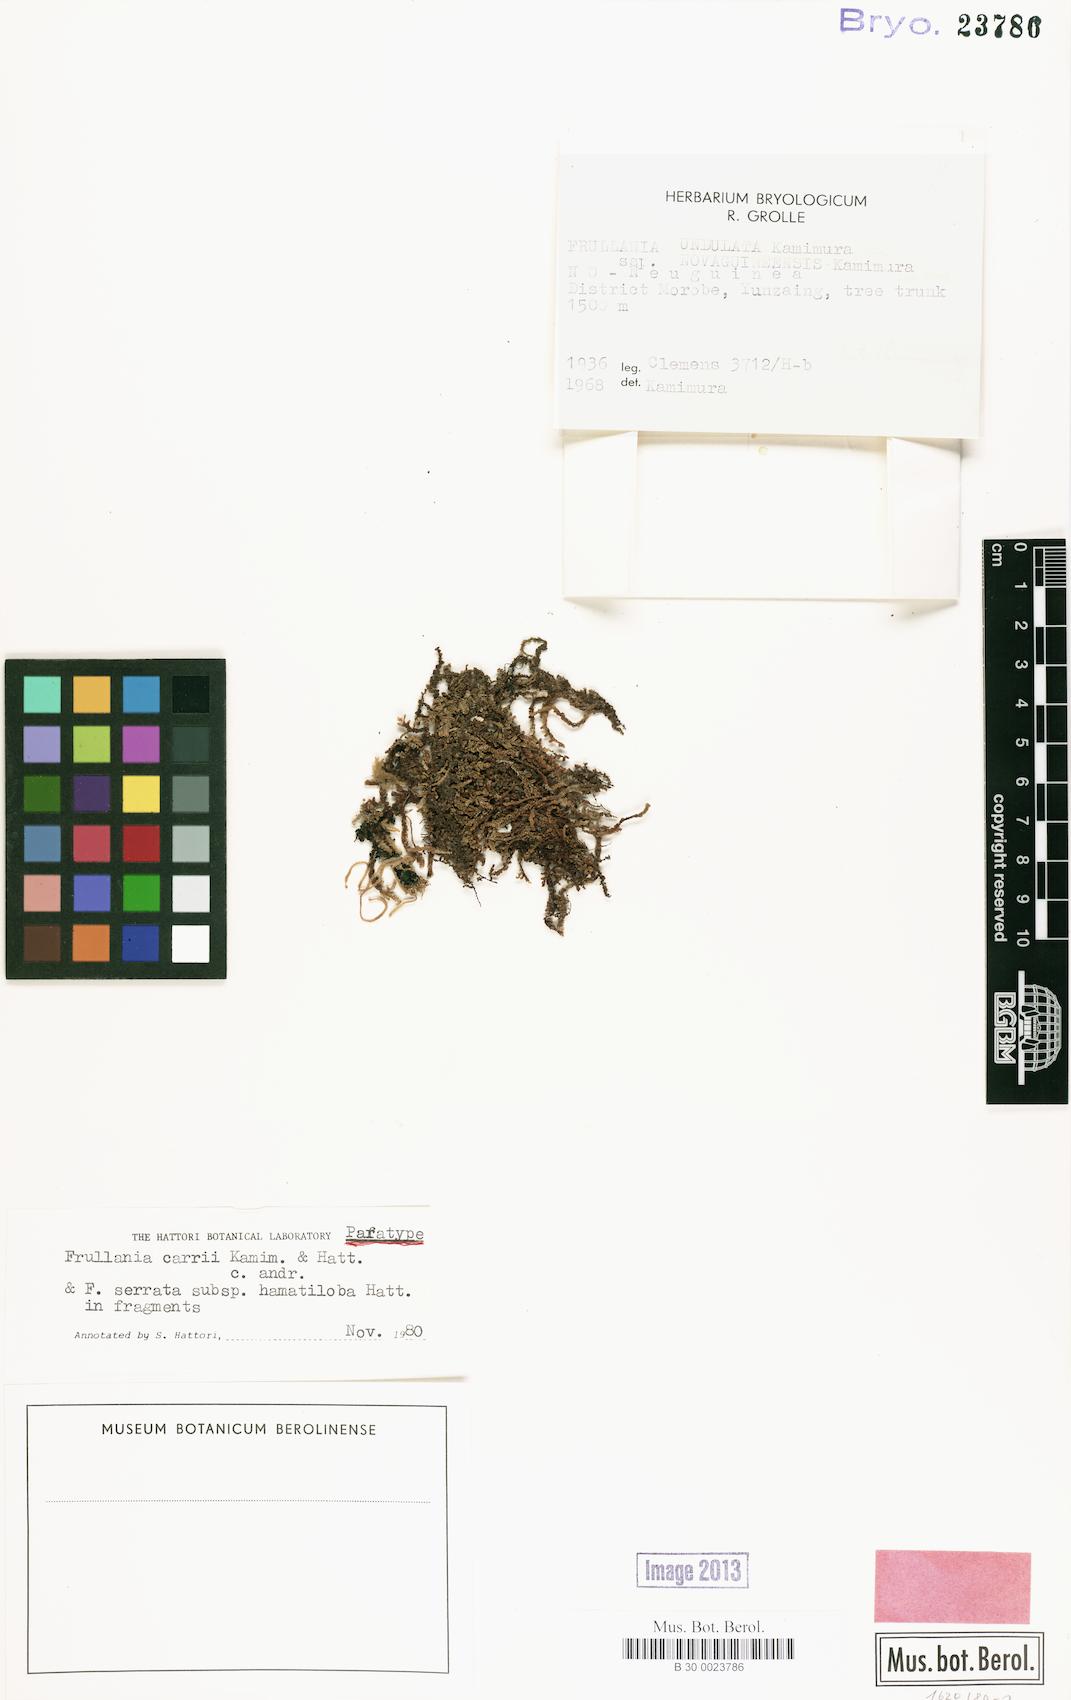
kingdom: Plantae
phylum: Marchantiophyta
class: Jungermanniopsida
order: Porellales
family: Frullaniaceae
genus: Frullania
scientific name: Frullania carrii
